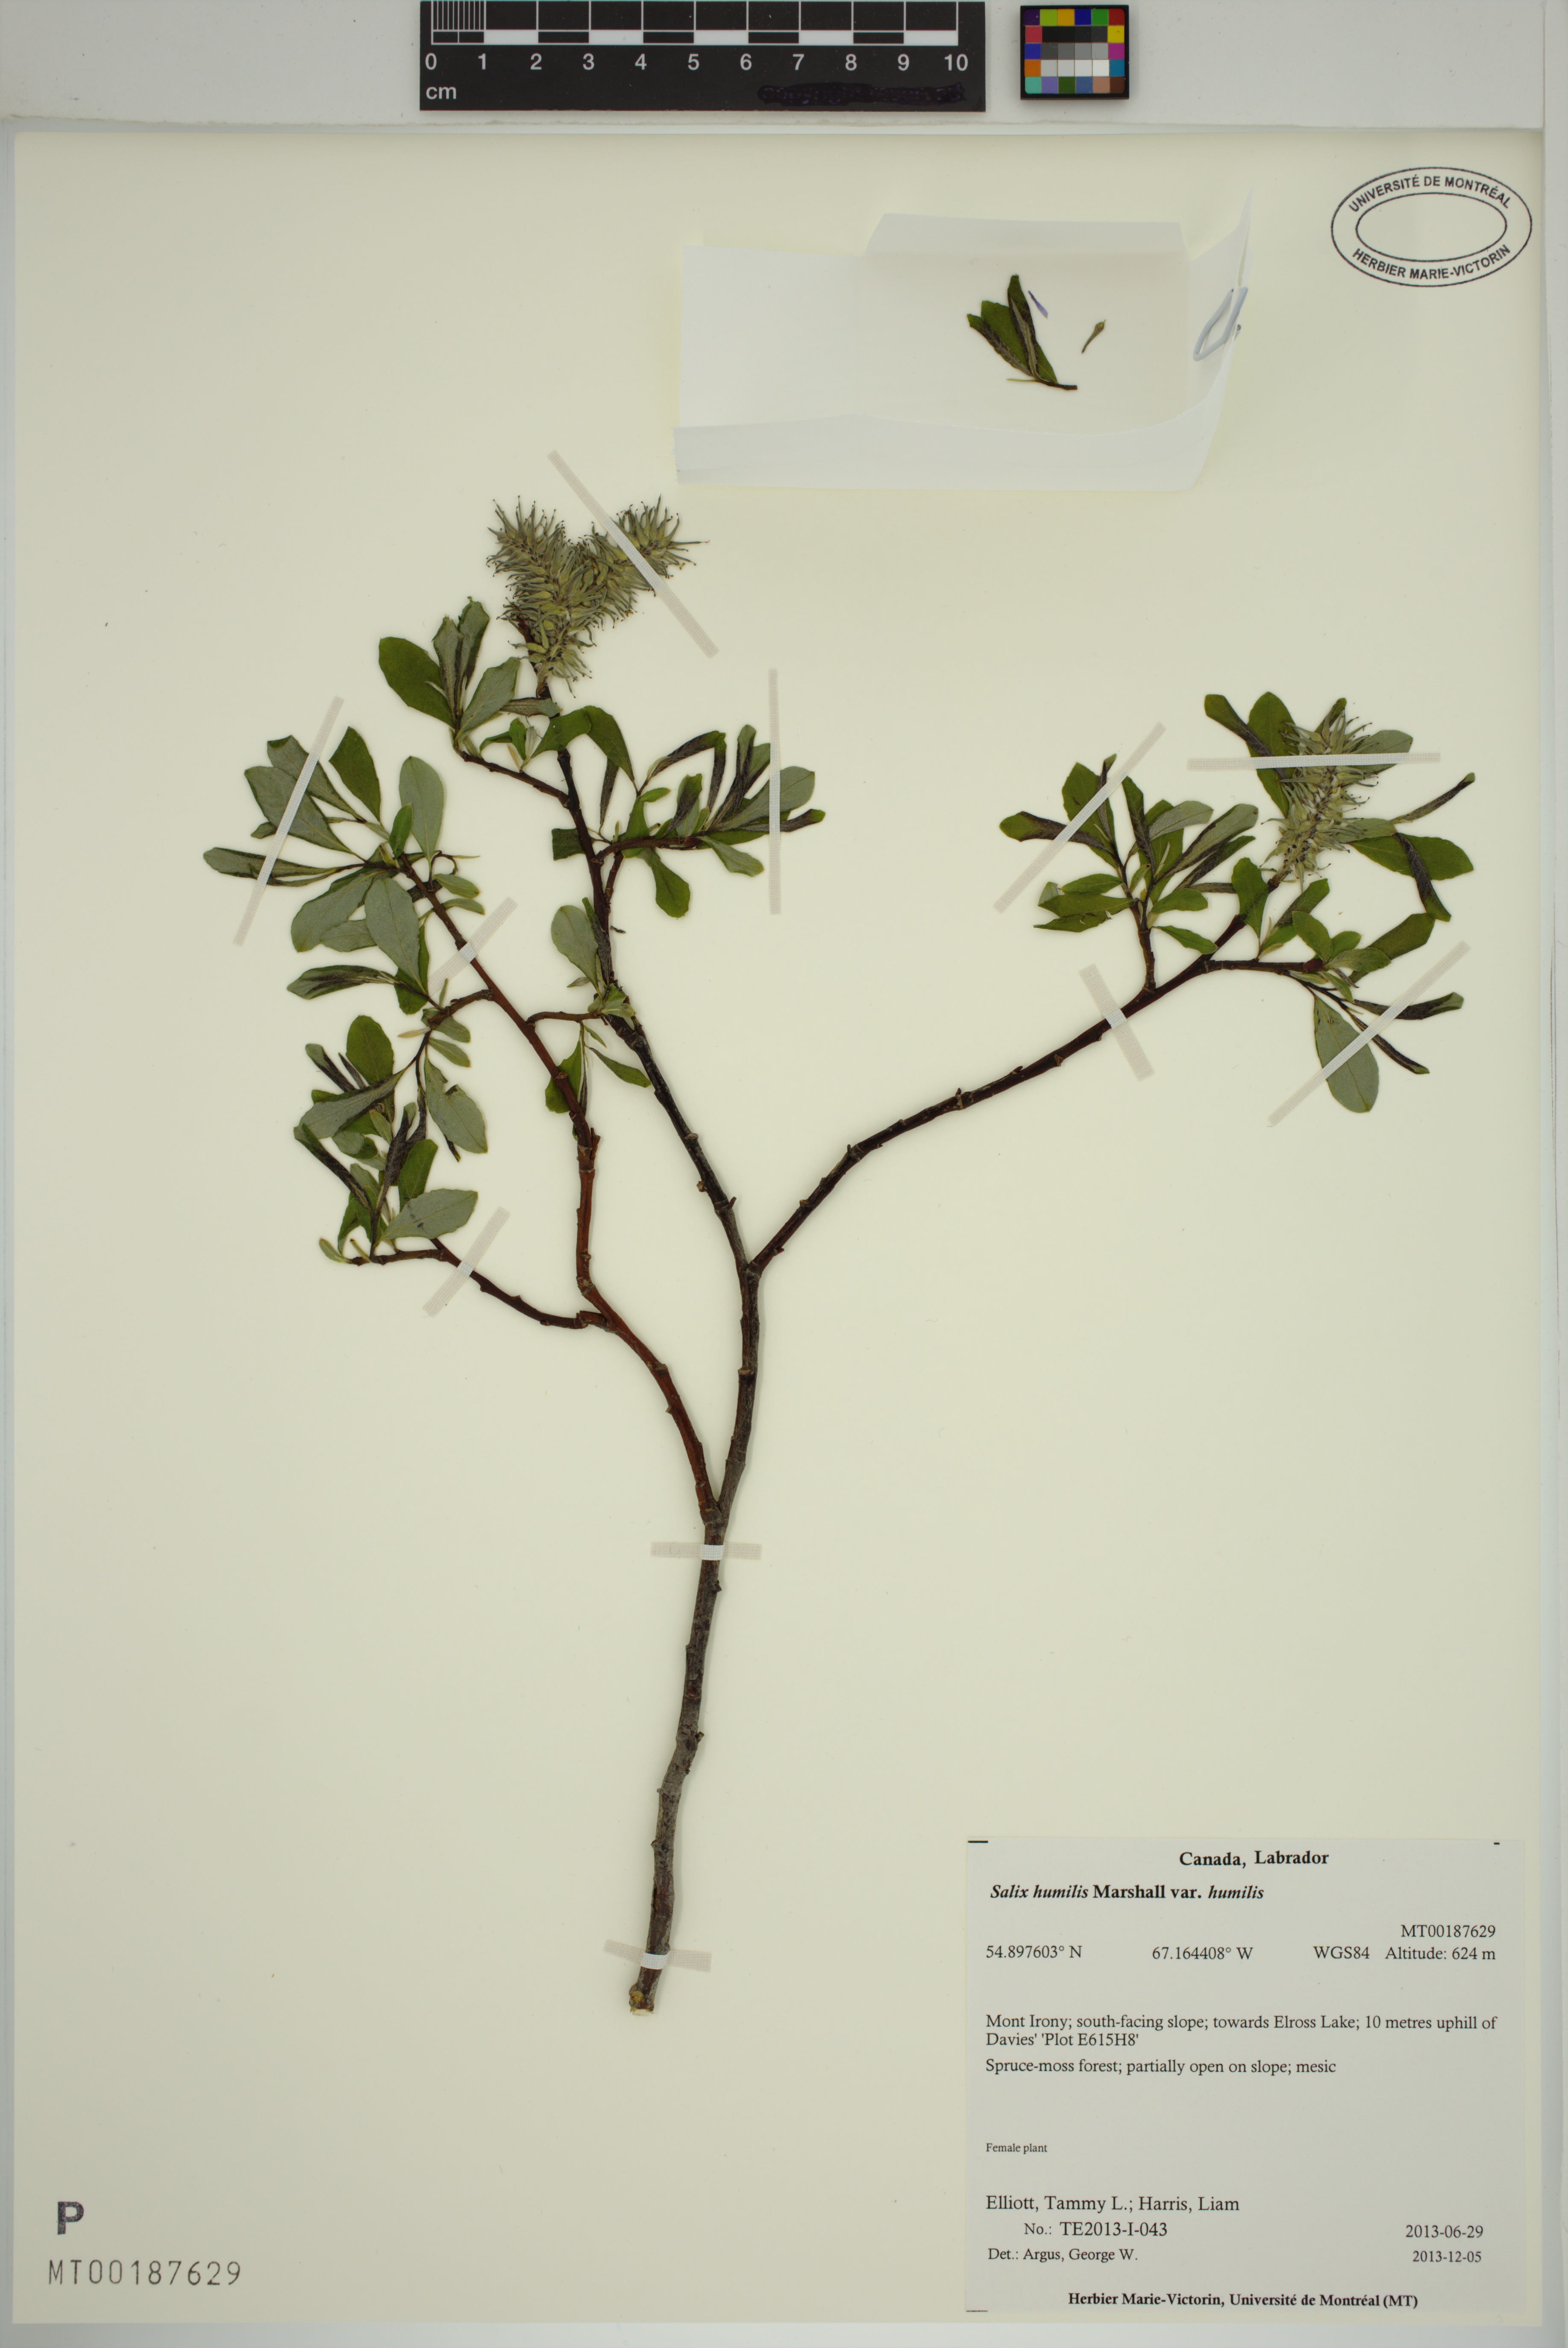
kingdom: Plantae
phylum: Tracheophyta
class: Magnoliopsida
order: Malpighiales
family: Salicaceae
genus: Salix
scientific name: Salix humilis
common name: Prairie willow
